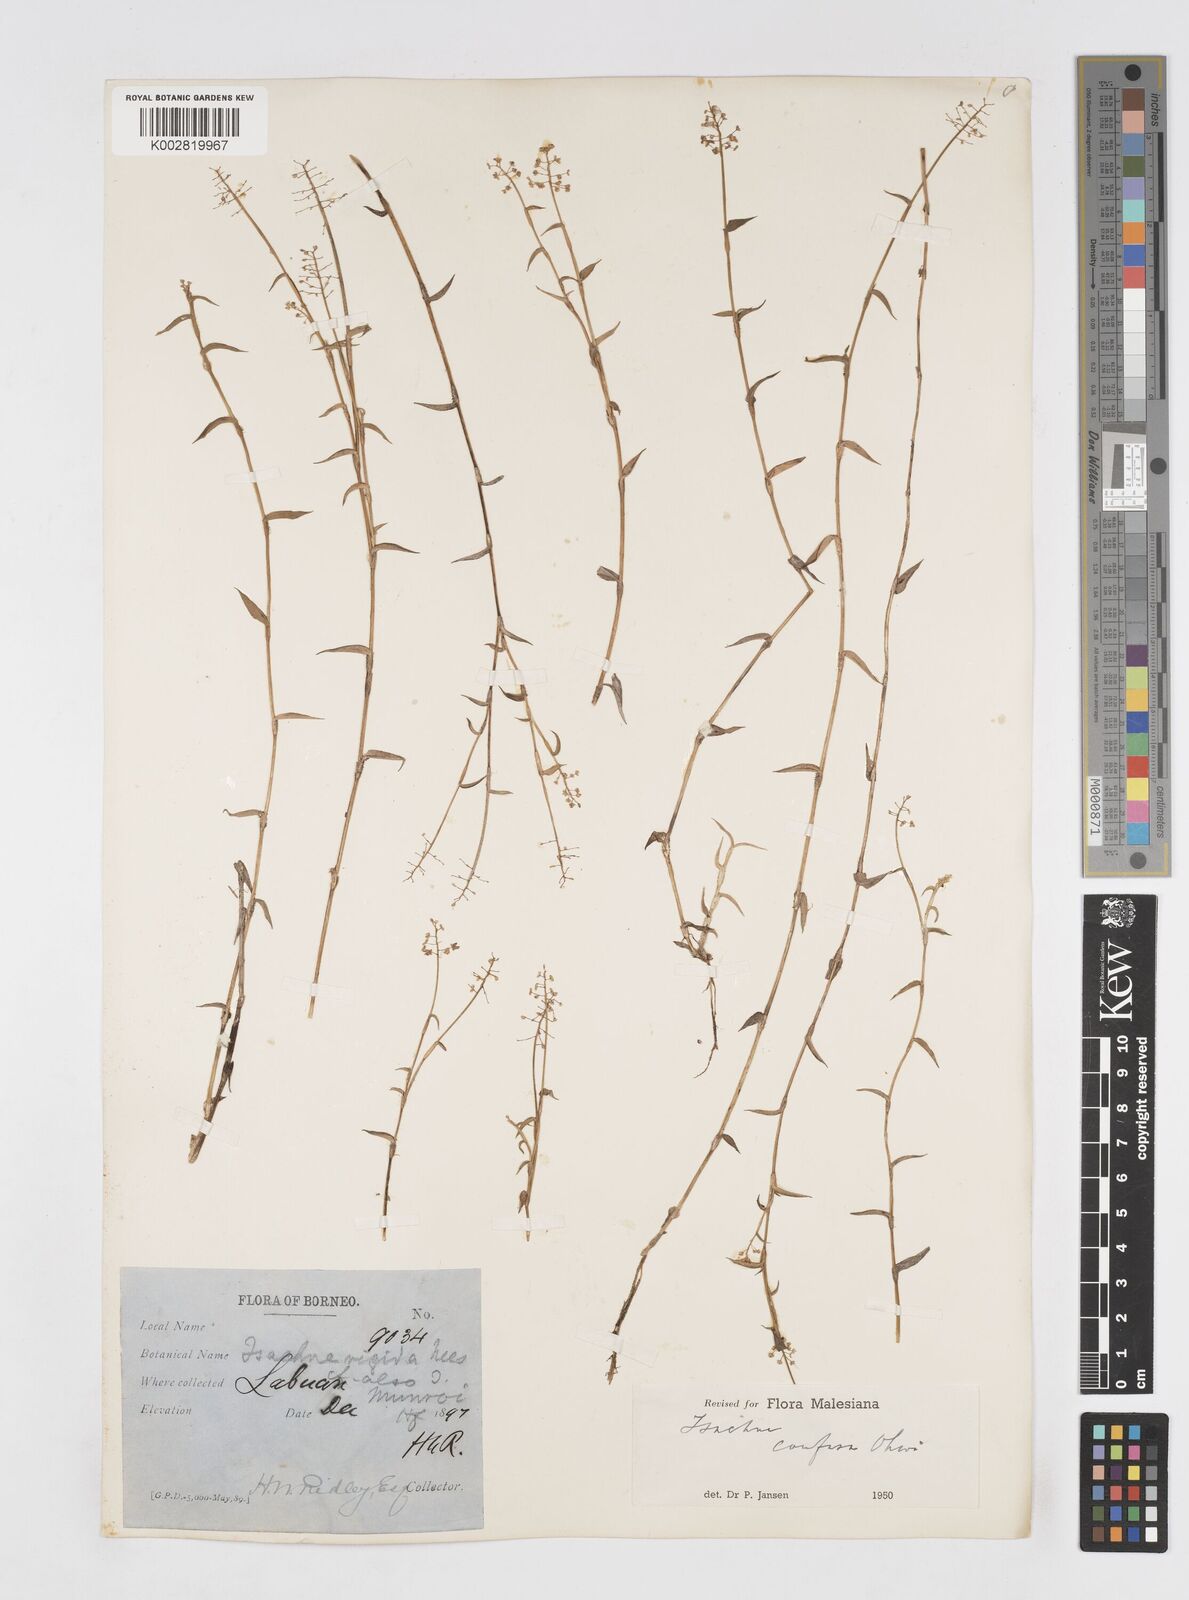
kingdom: Plantae
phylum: Tracheophyta
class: Liliopsida
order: Poales
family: Poaceae
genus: Isachne
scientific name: Isachne confusa
